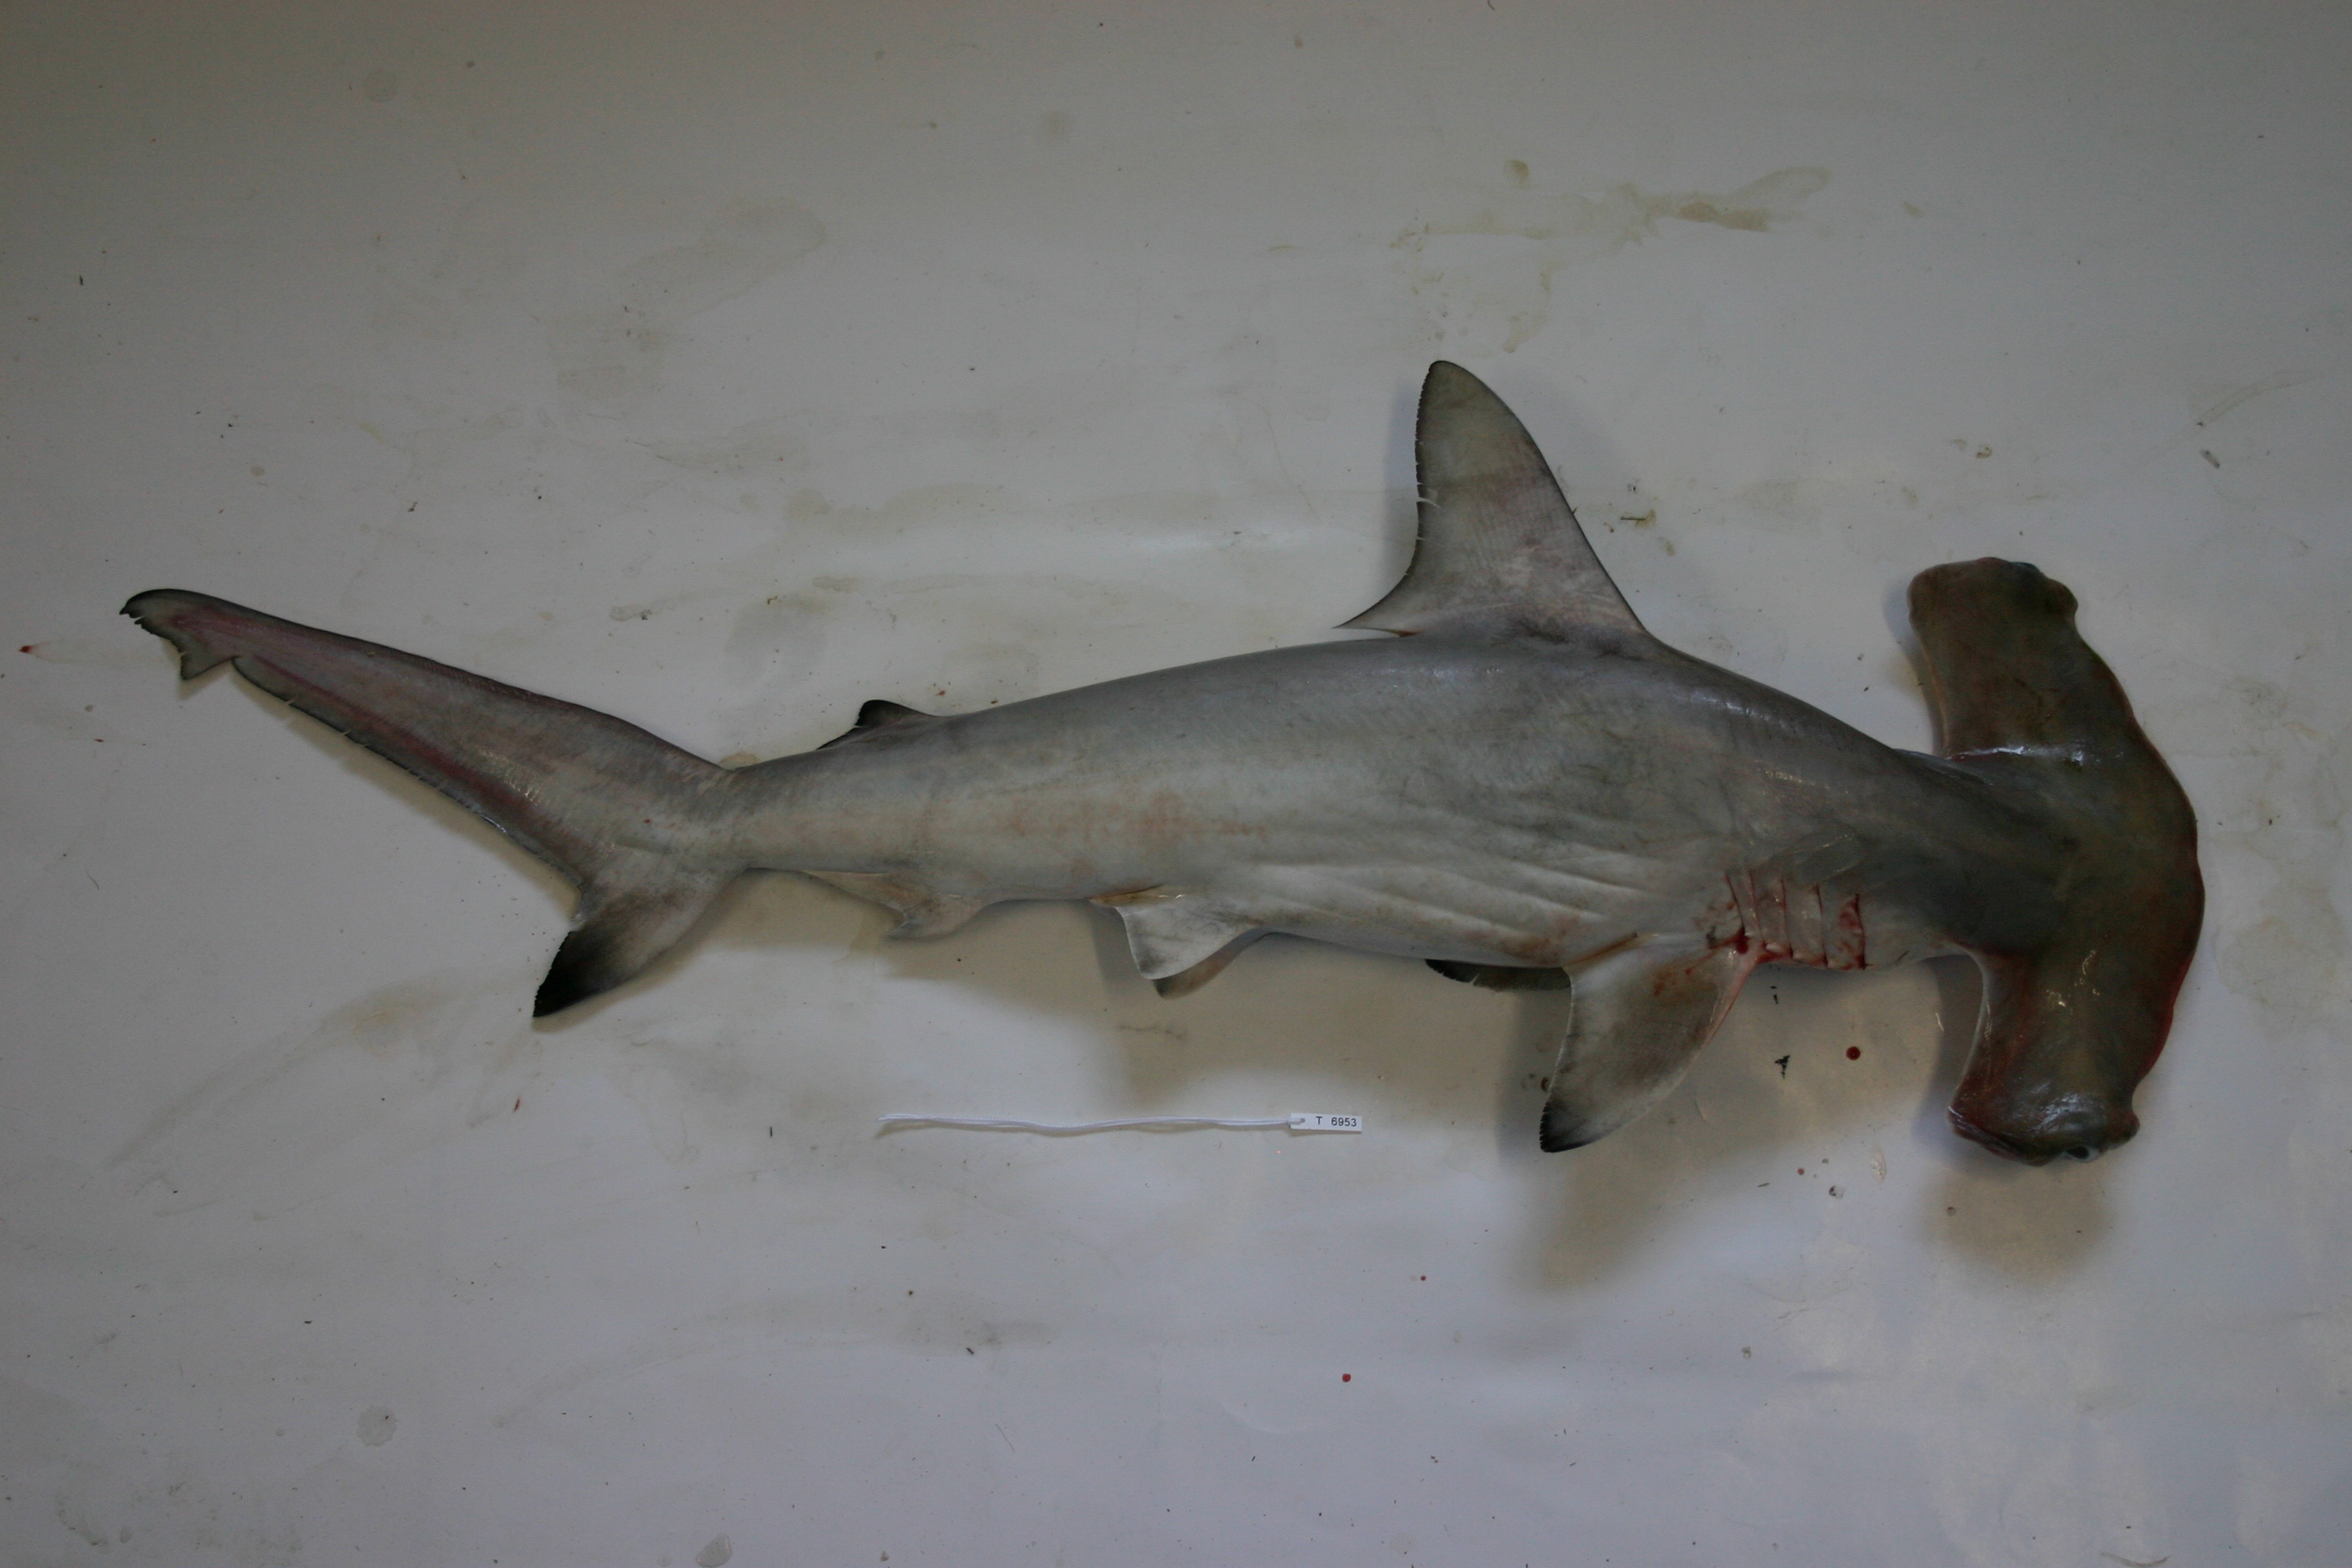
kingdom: Animalia
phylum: Chordata
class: Elasmobranchii
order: Carcharhiniformes
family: Sphyrnidae
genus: Sphyrna
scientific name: Sphyrna lewini
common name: Scalloped hammerhead
